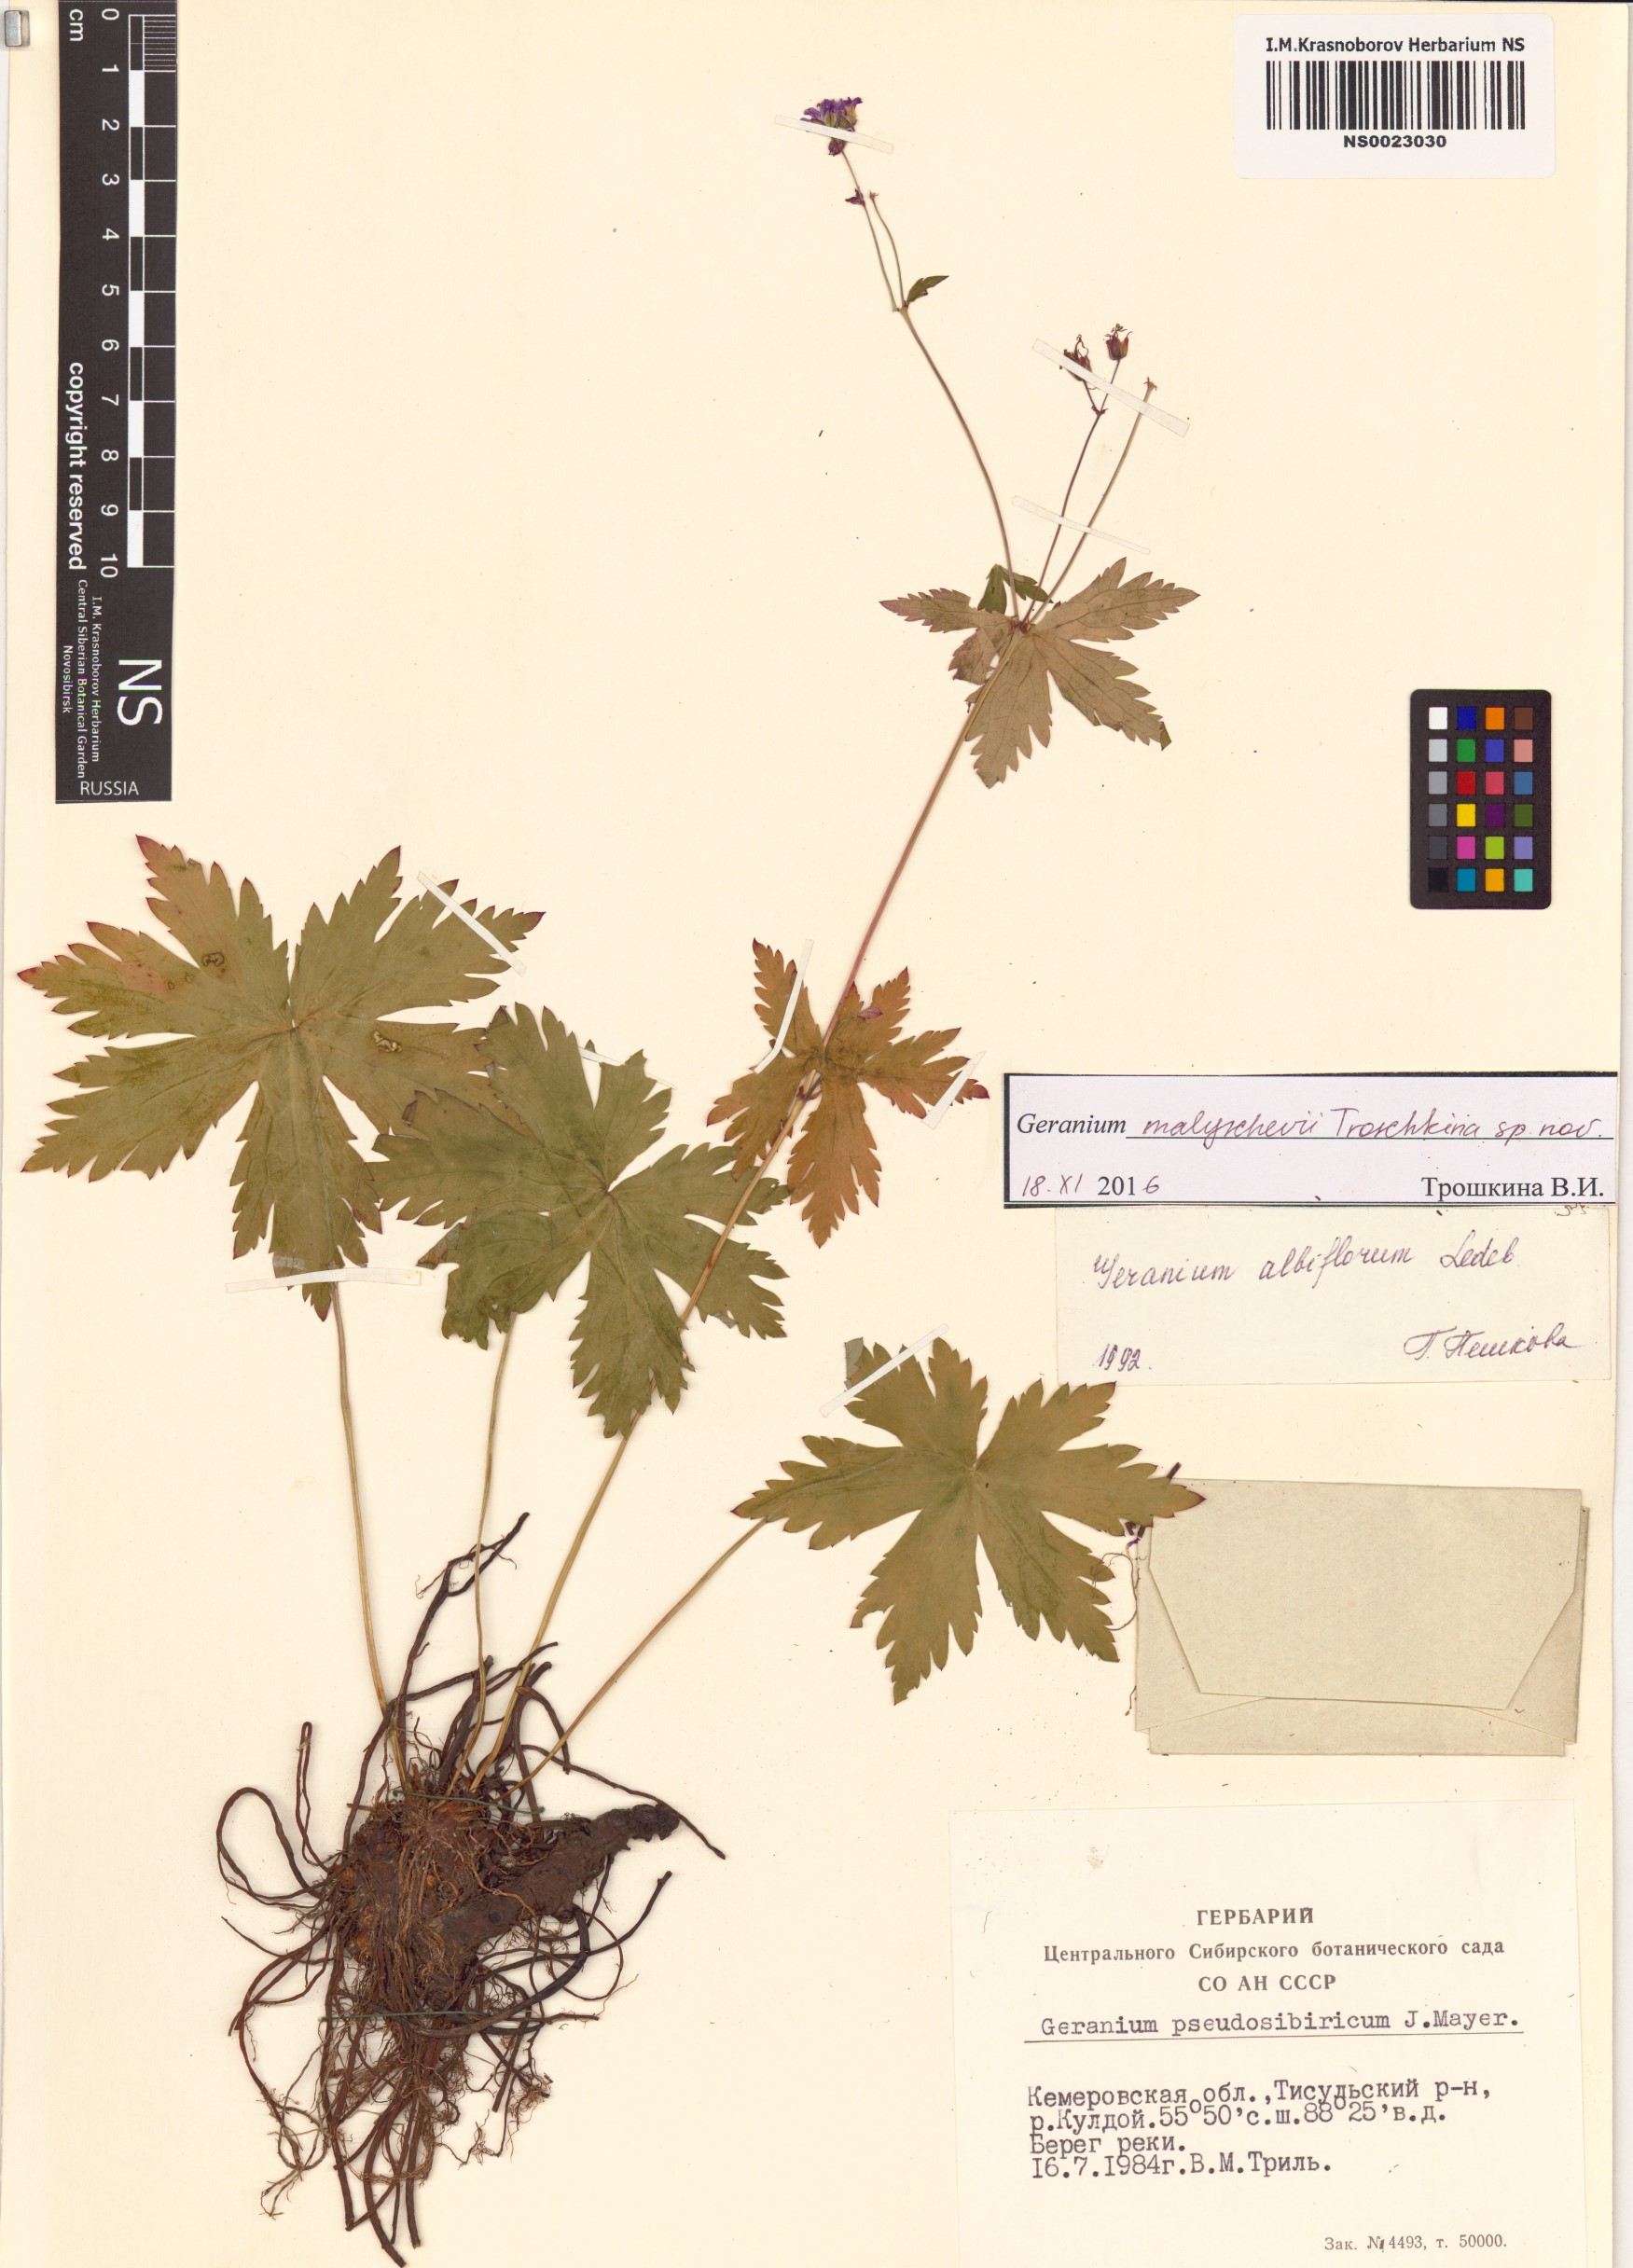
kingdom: Plantae
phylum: Tracheophyta
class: Magnoliopsida
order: Geraniales
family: Geraniaceae
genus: Geranium
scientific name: Geranium malyschevii
